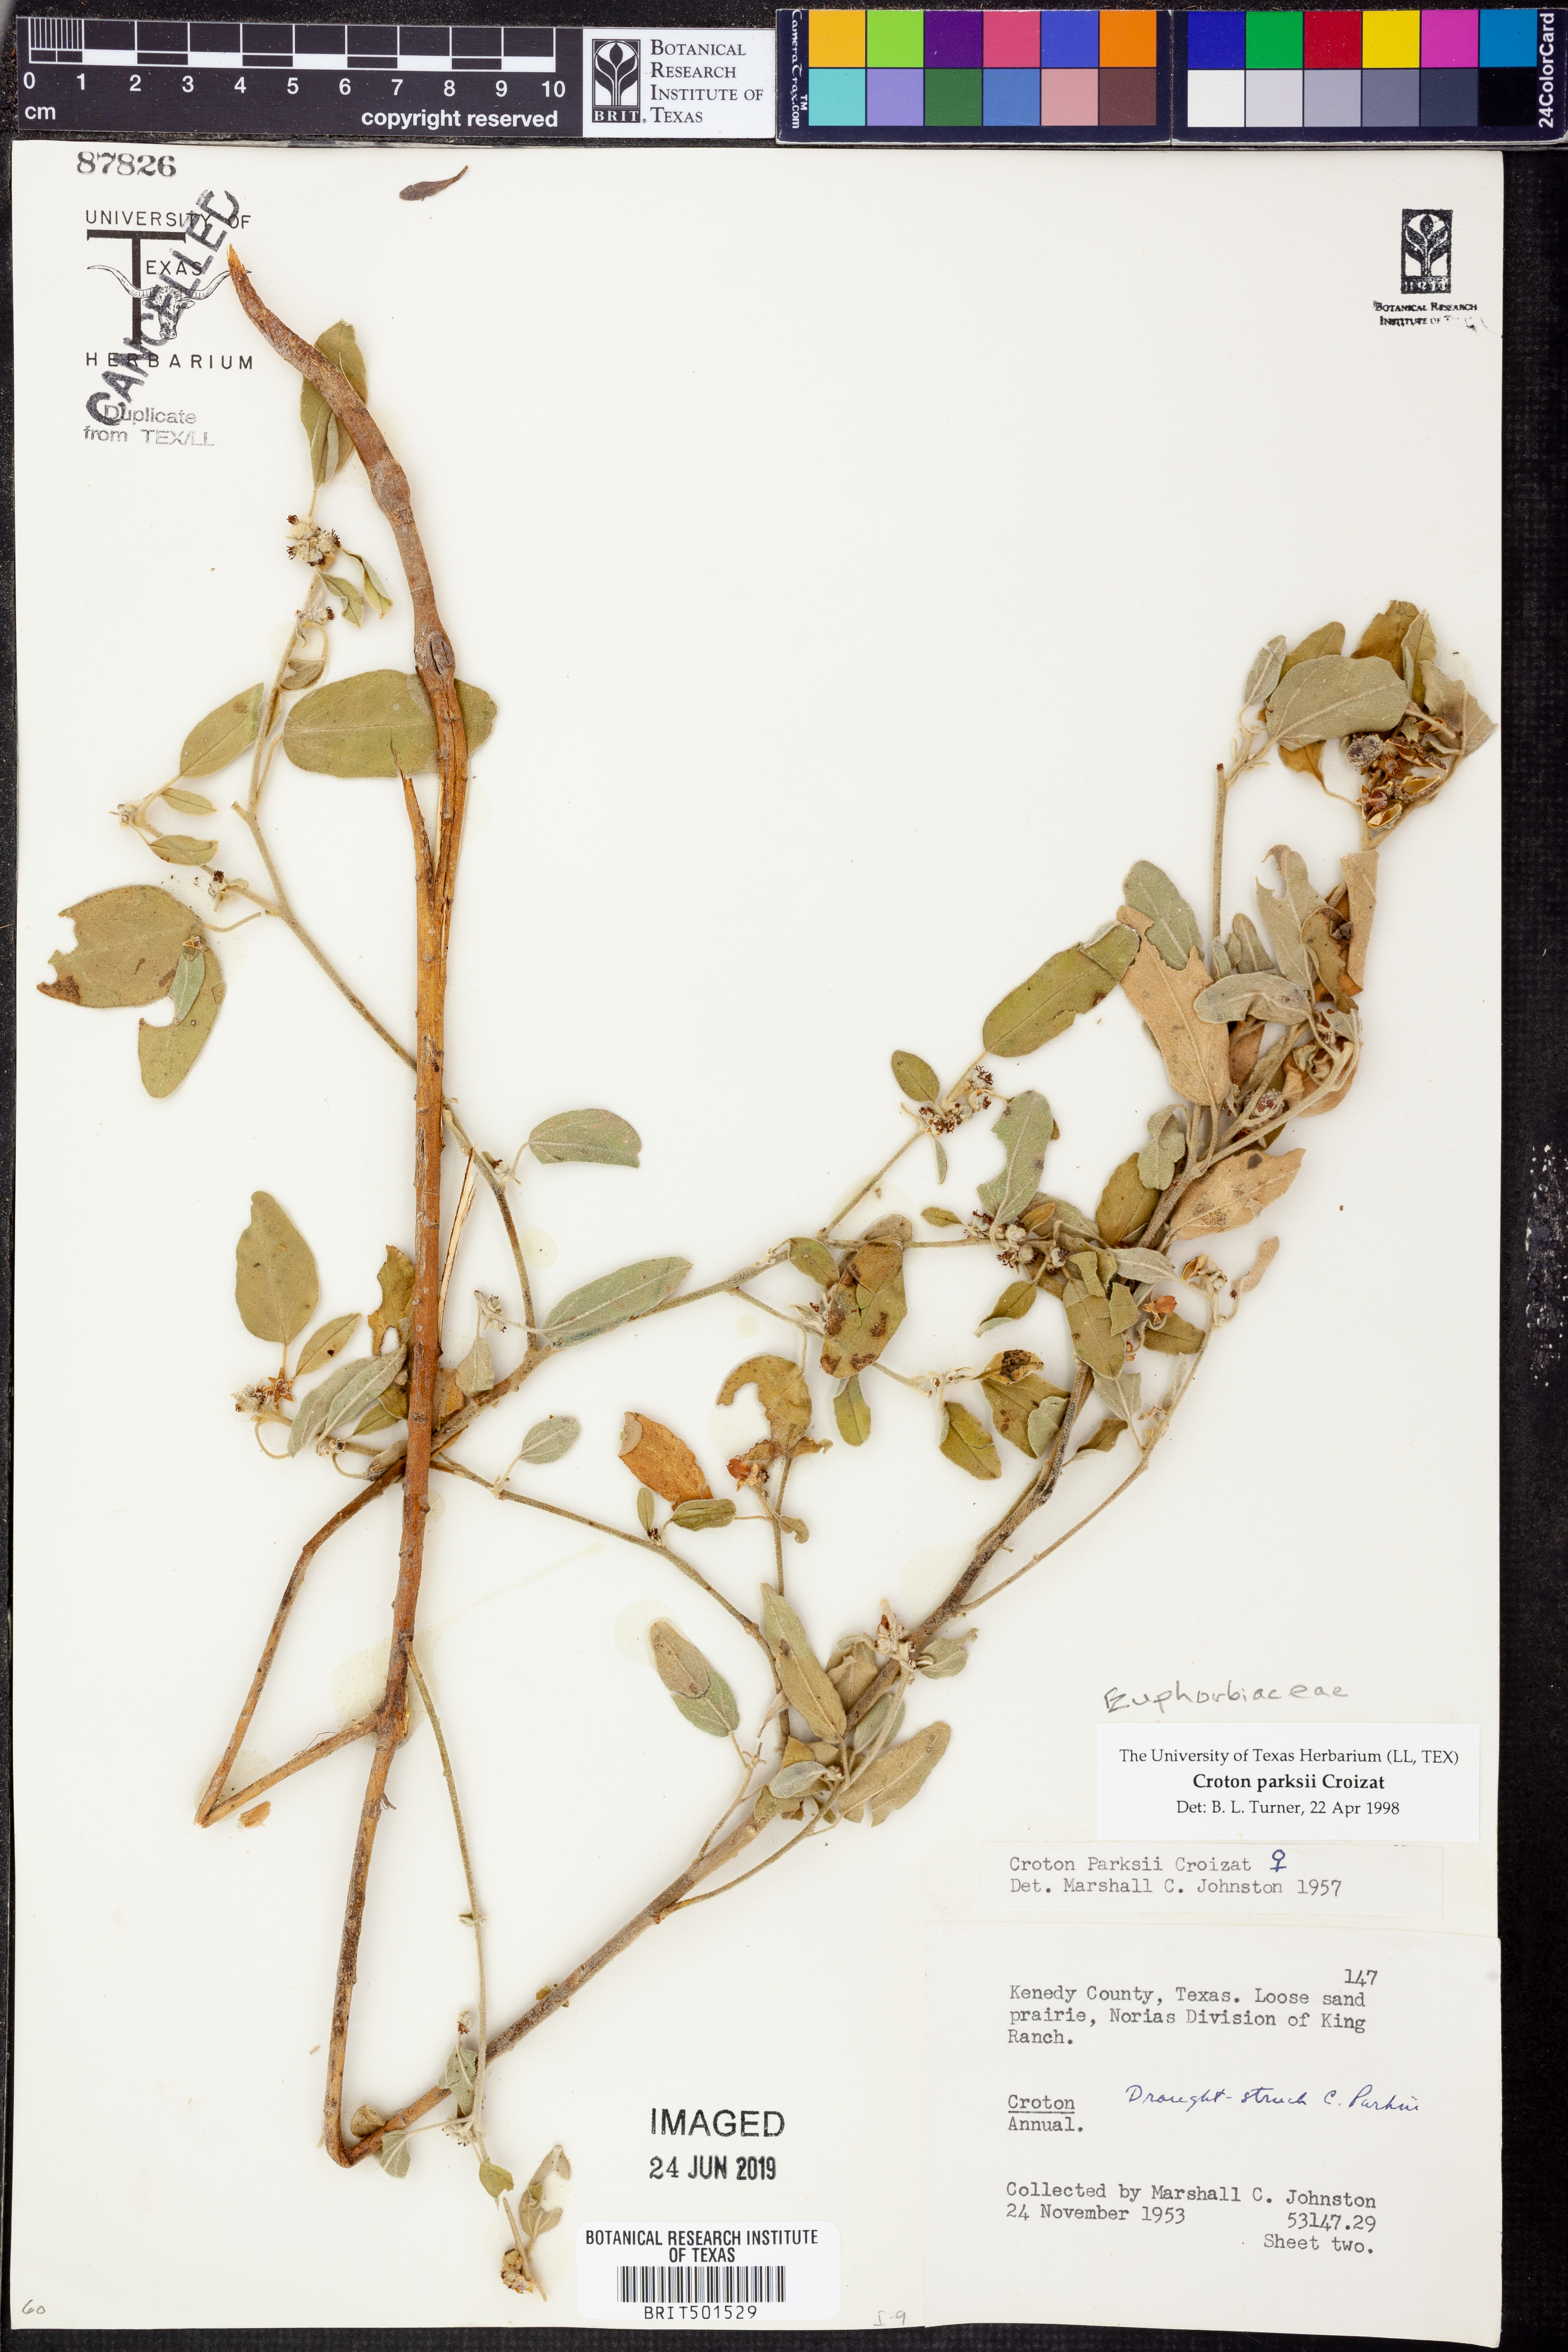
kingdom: Plantae
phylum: Tracheophyta
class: Magnoliopsida
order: Malpighiales
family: Euphorbiaceae
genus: Croton
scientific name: Croton parksii
